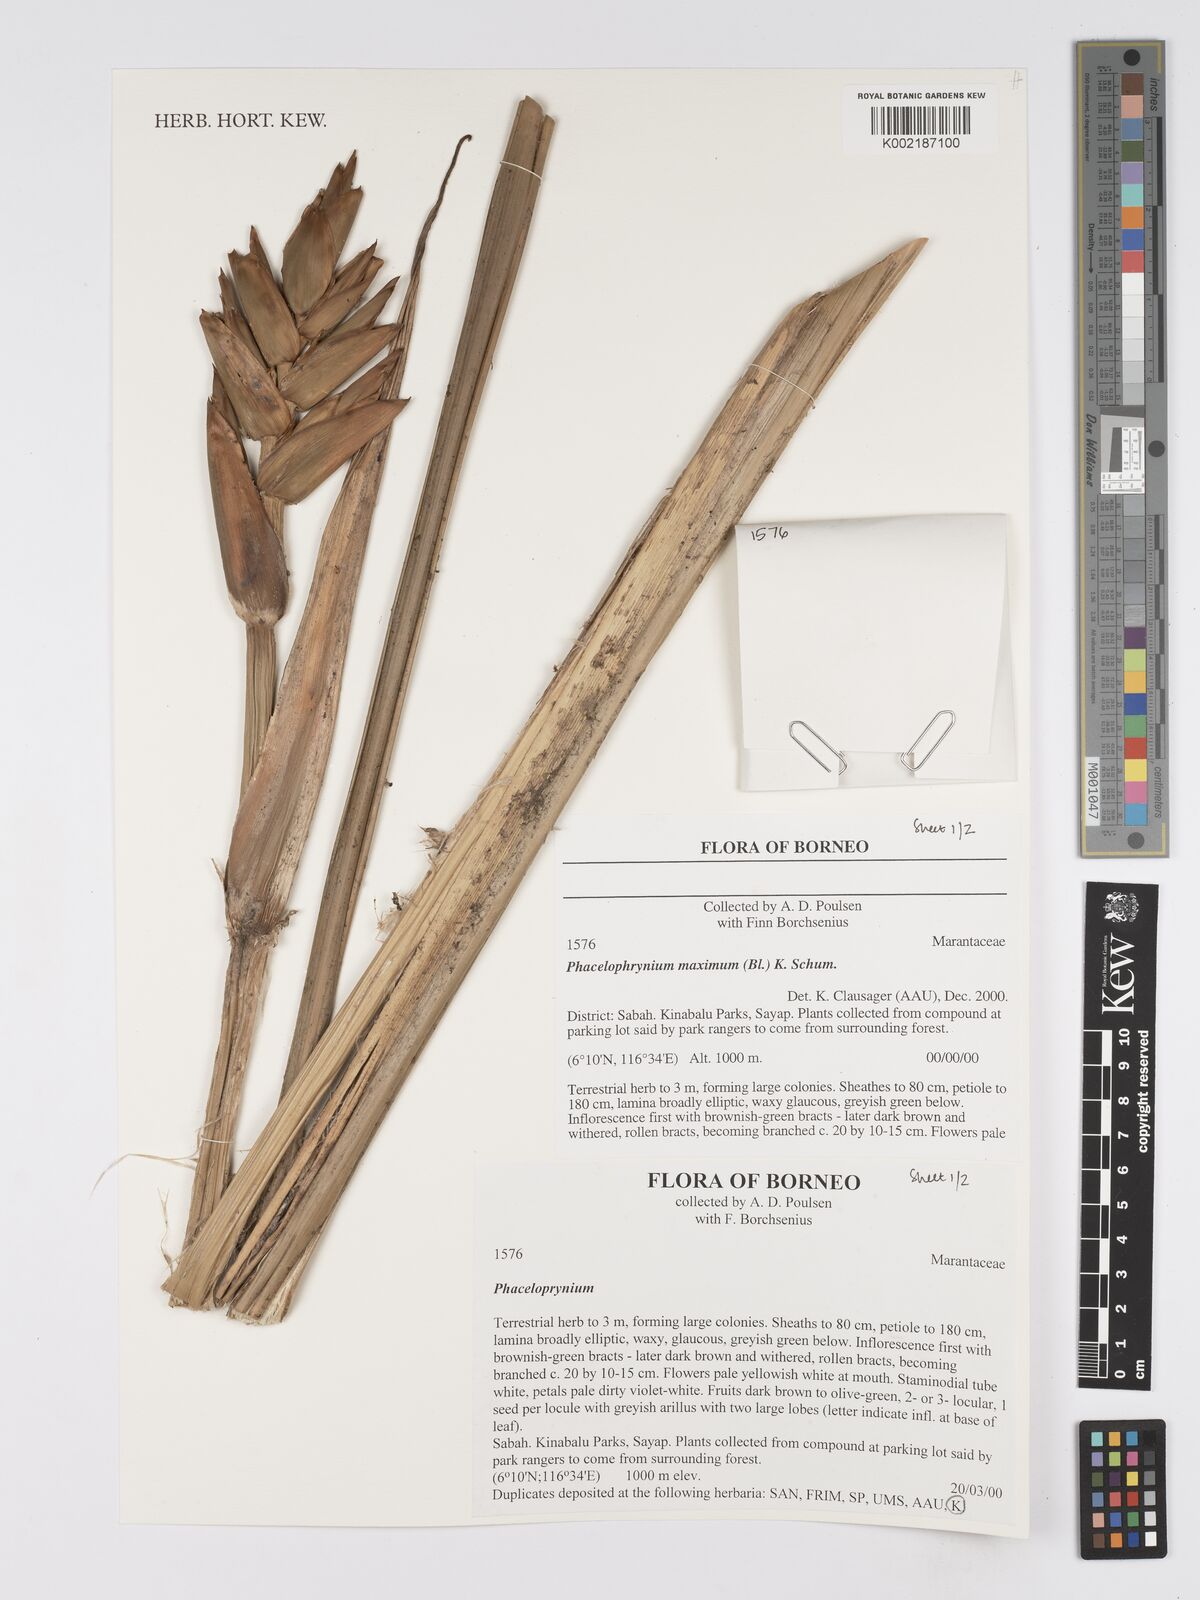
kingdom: Plantae
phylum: Tracheophyta
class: Liliopsida
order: Zingiberales
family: Marantaceae
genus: Phrynium
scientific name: Phrynium maximum
